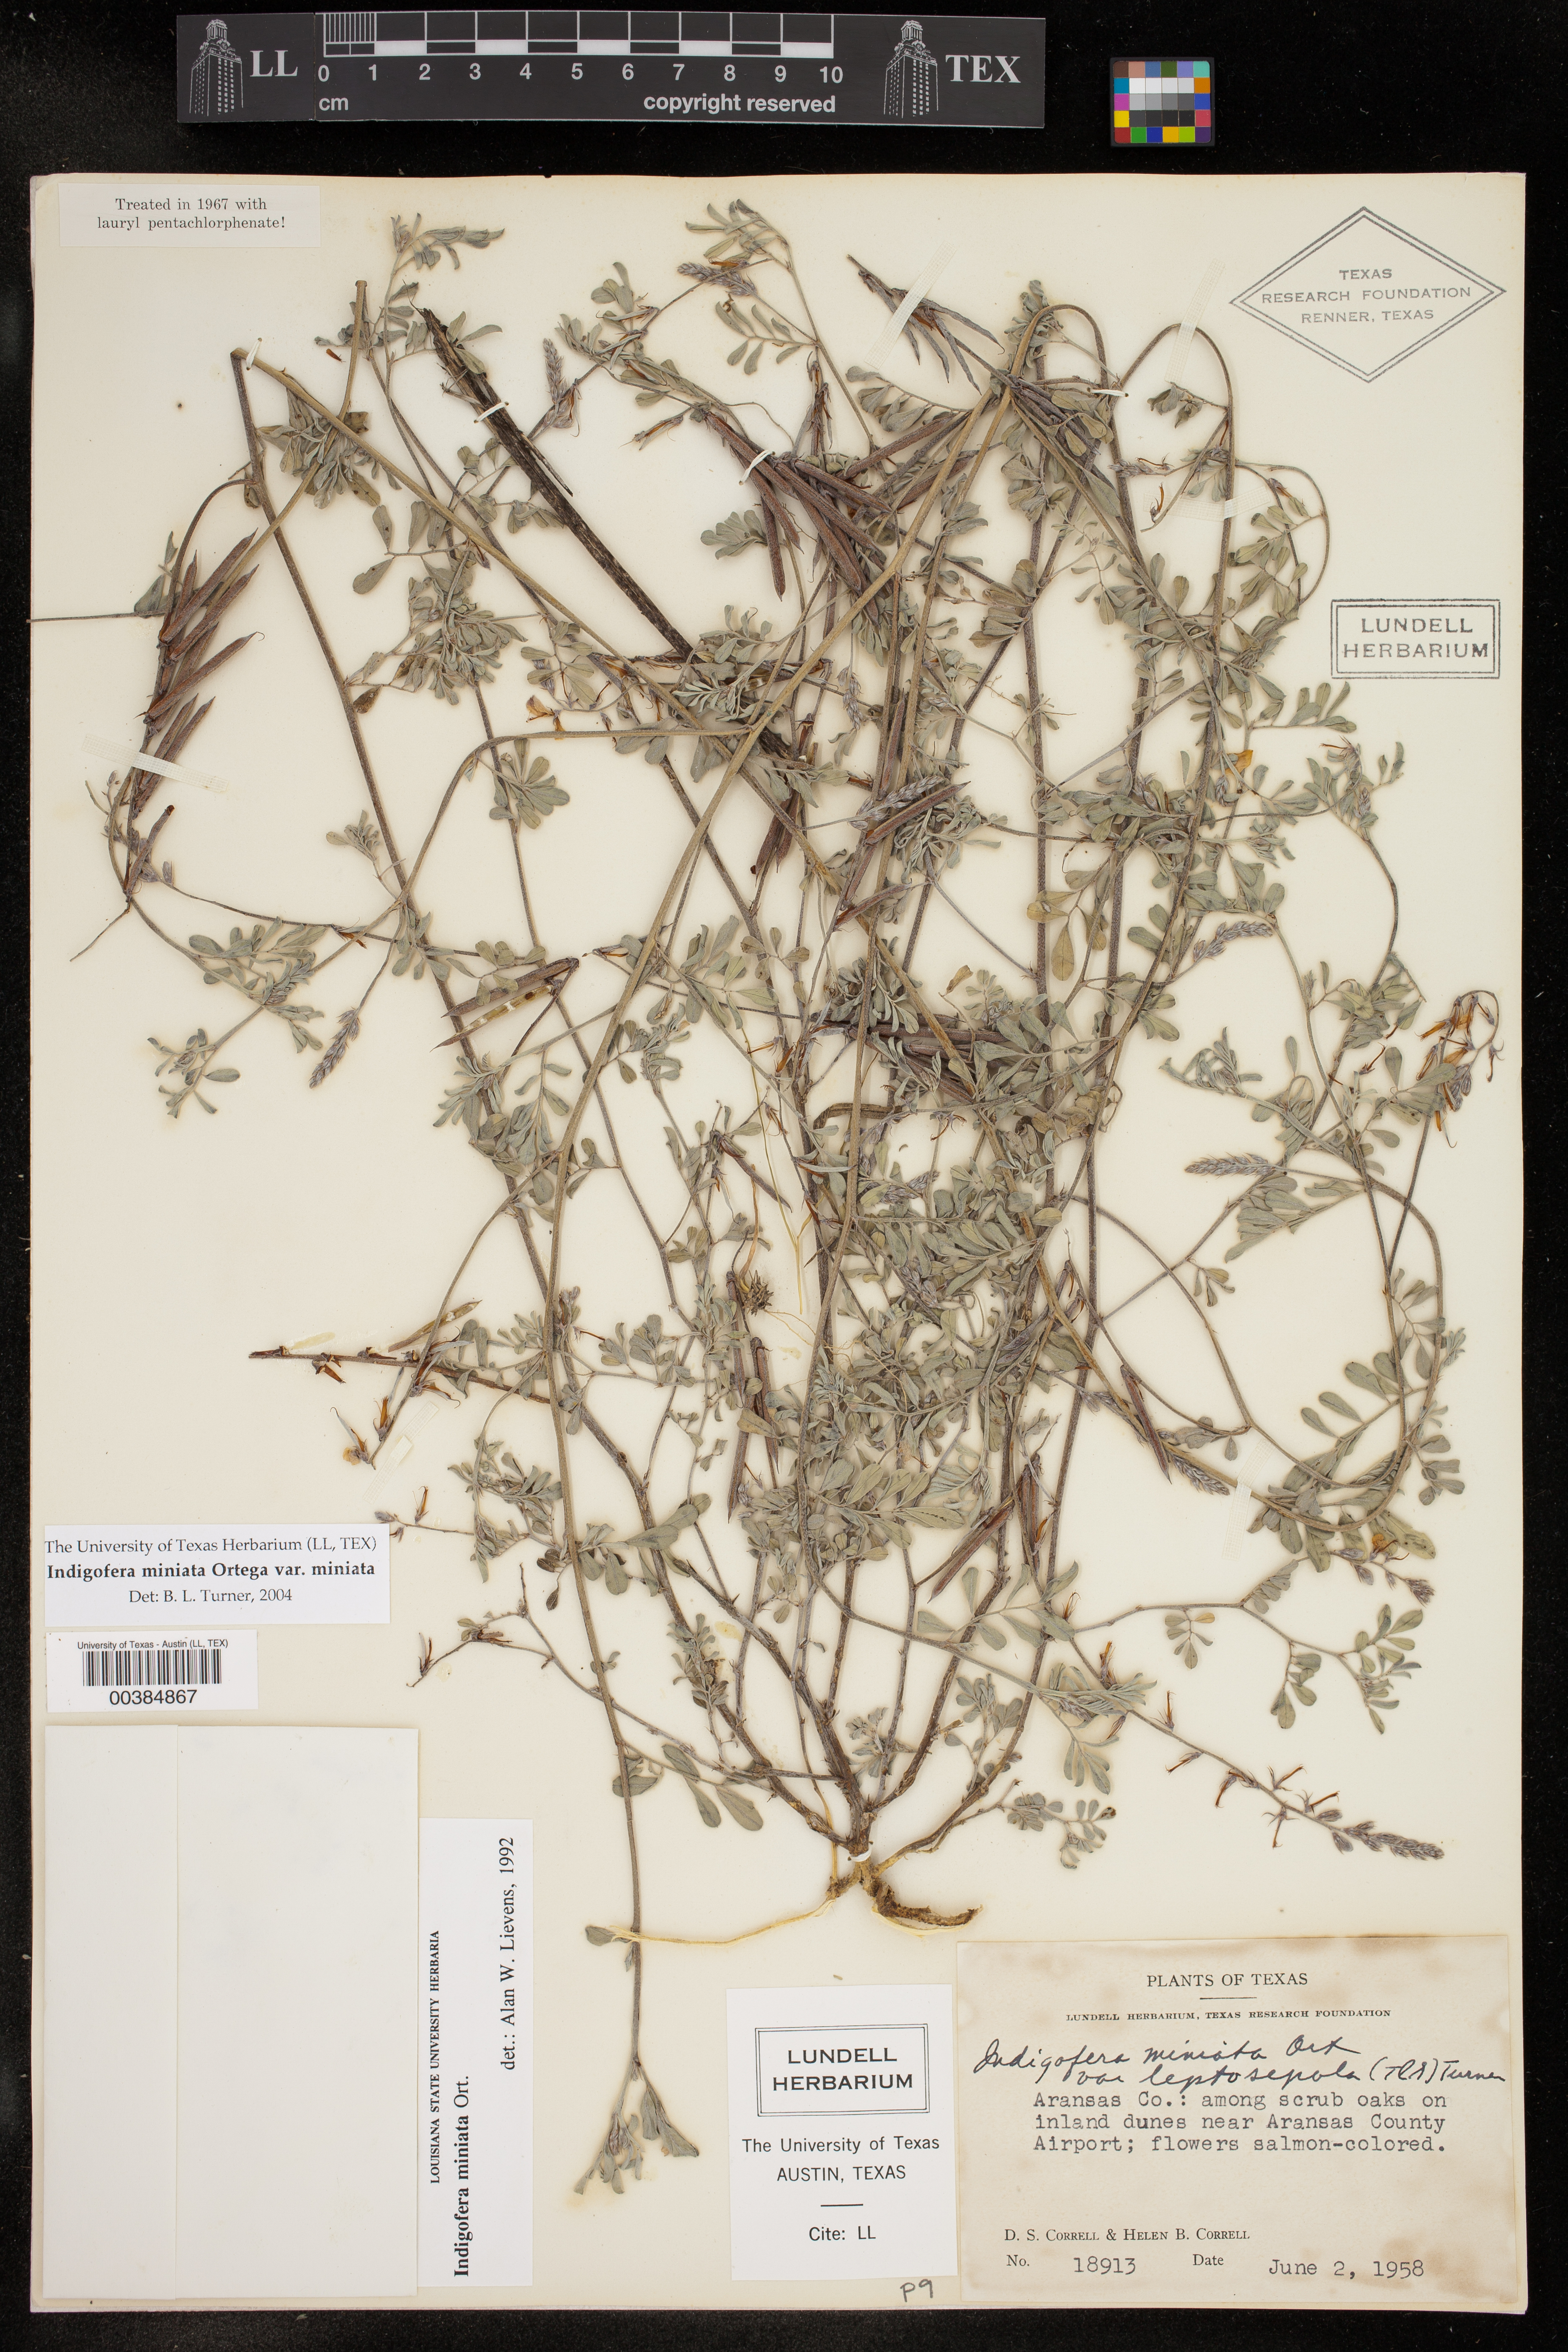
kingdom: Plantae
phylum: Tracheophyta
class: Magnoliopsida
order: Fabales
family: Fabaceae
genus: Indigofera
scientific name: Indigofera miniata
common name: Coast indigo
